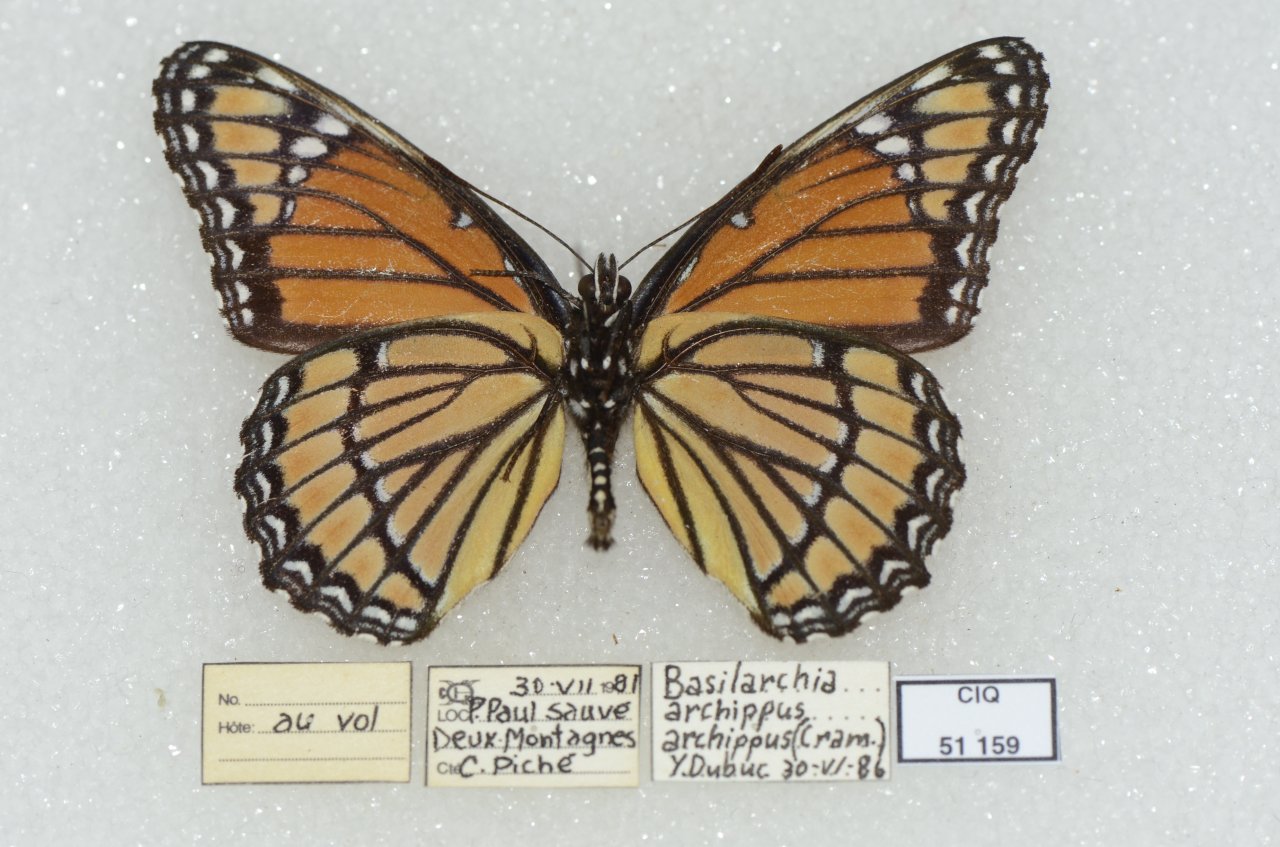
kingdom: Animalia
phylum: Arthropoda
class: Insecta
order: Lepidoptera
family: Nymphalidae
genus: Limenitis
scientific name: Limenitis archippus
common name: Viceroy
